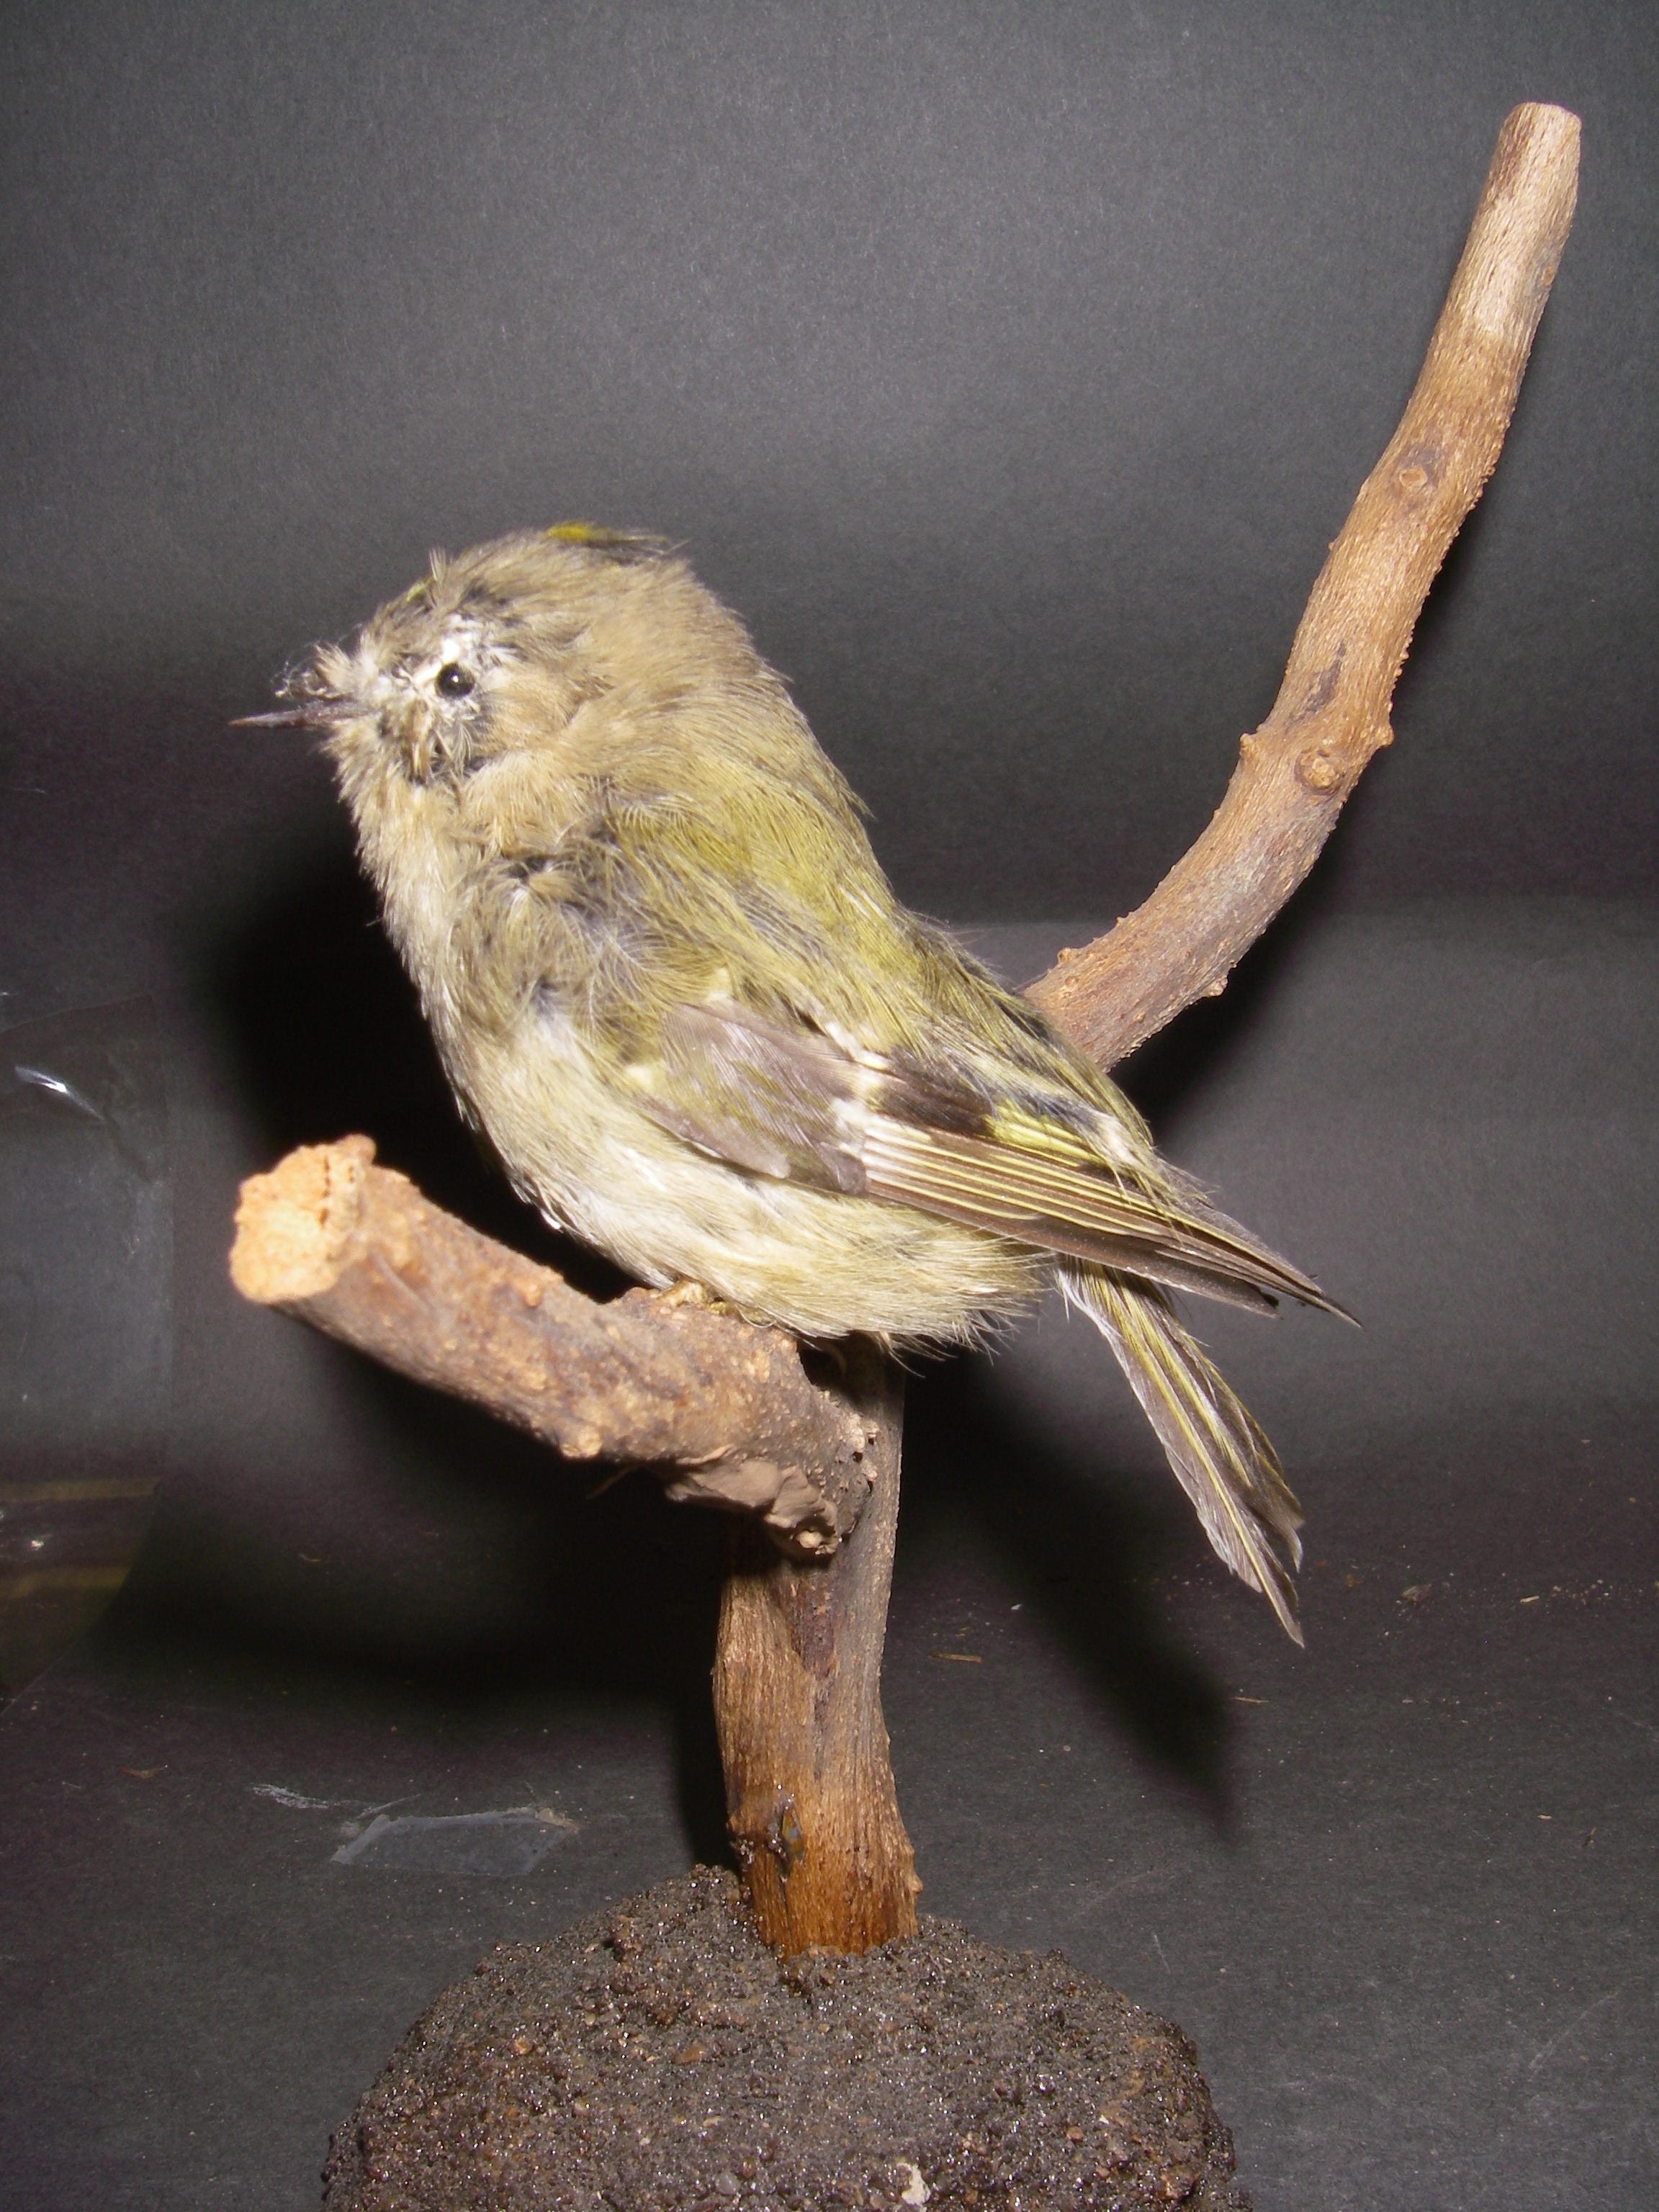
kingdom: Animalia
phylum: Chordata
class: Aves
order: Passeriformes
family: Regulidae
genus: Regulus
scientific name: Regulus regulus
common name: Goldcrest
